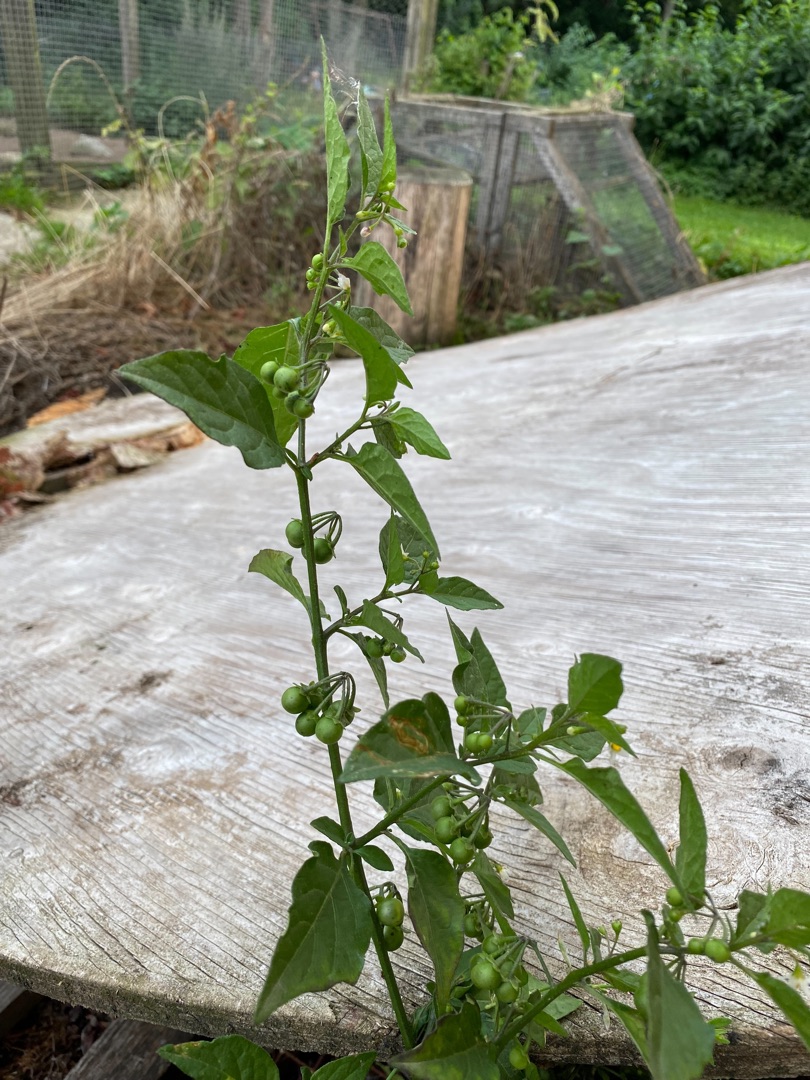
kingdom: Plantae
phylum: Tracheophyta
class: Magnoliopsida
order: Solanales
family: Solanaceae
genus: Solanum
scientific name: Solanum nigrum
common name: Sort natskygge
